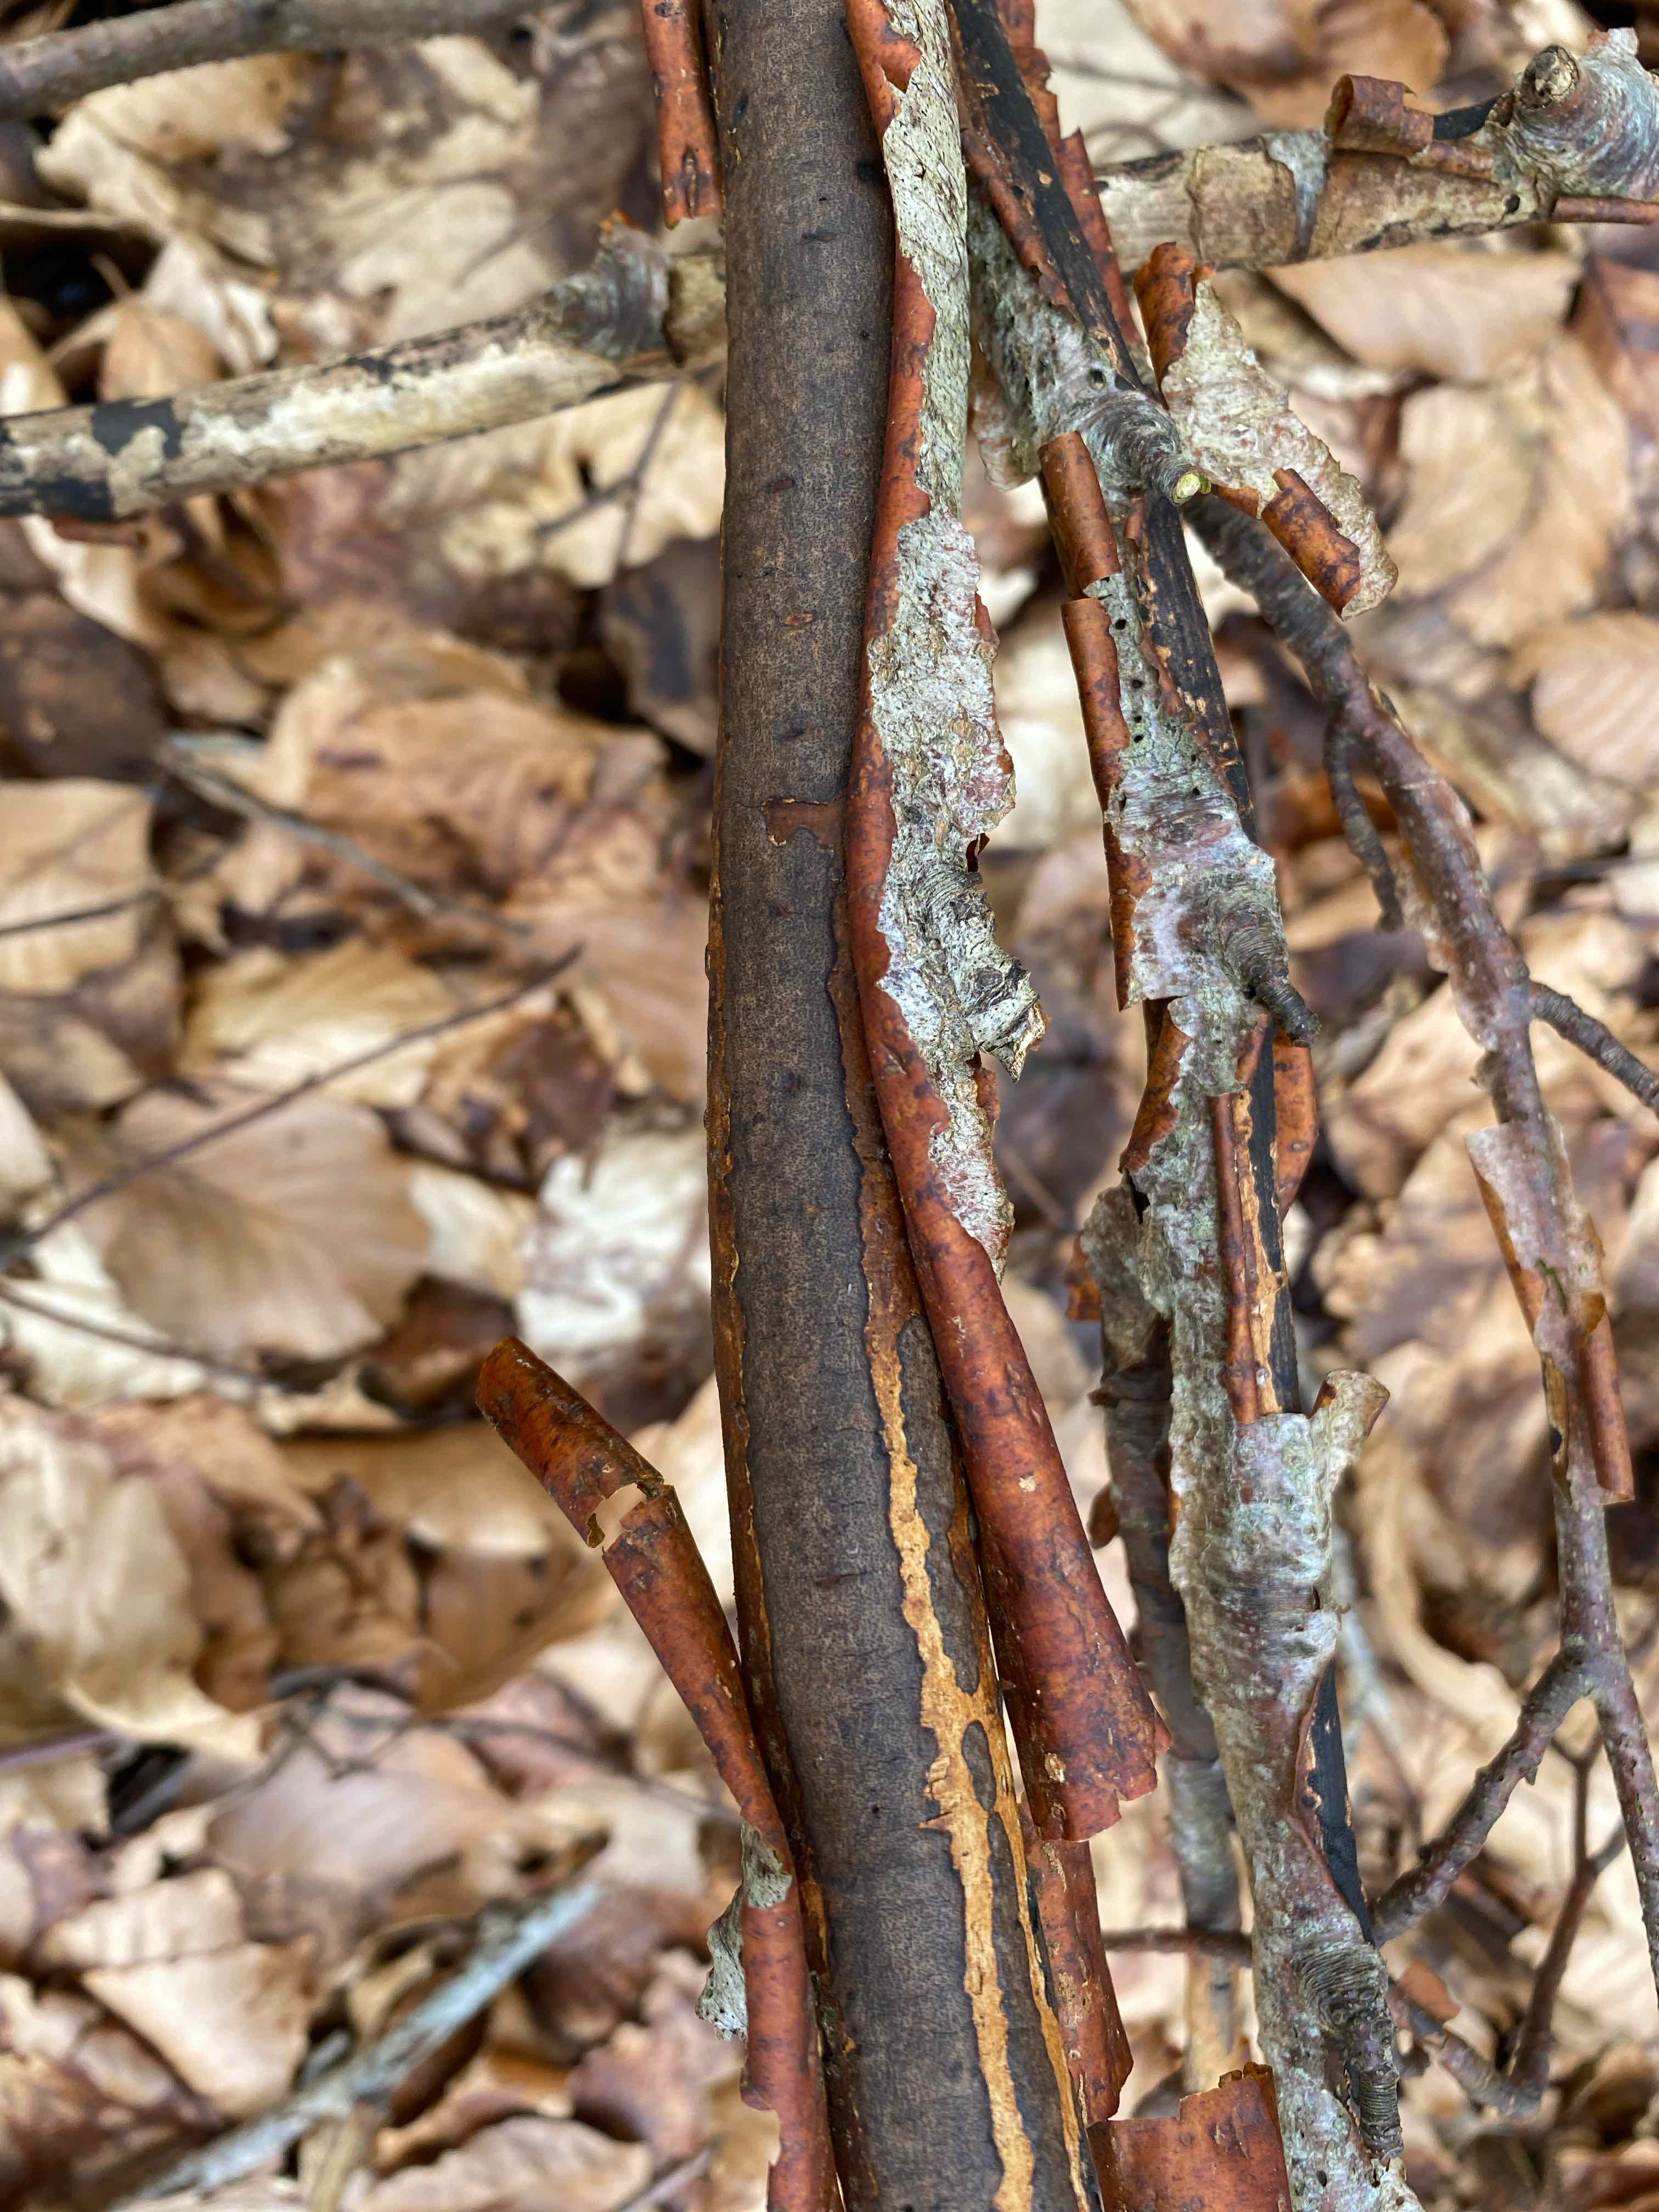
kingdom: Fungi
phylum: Ascomycota
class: Sordariomycetes
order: Xylariales
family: Diatrypaceae
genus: Diatrype
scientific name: Diatrype
